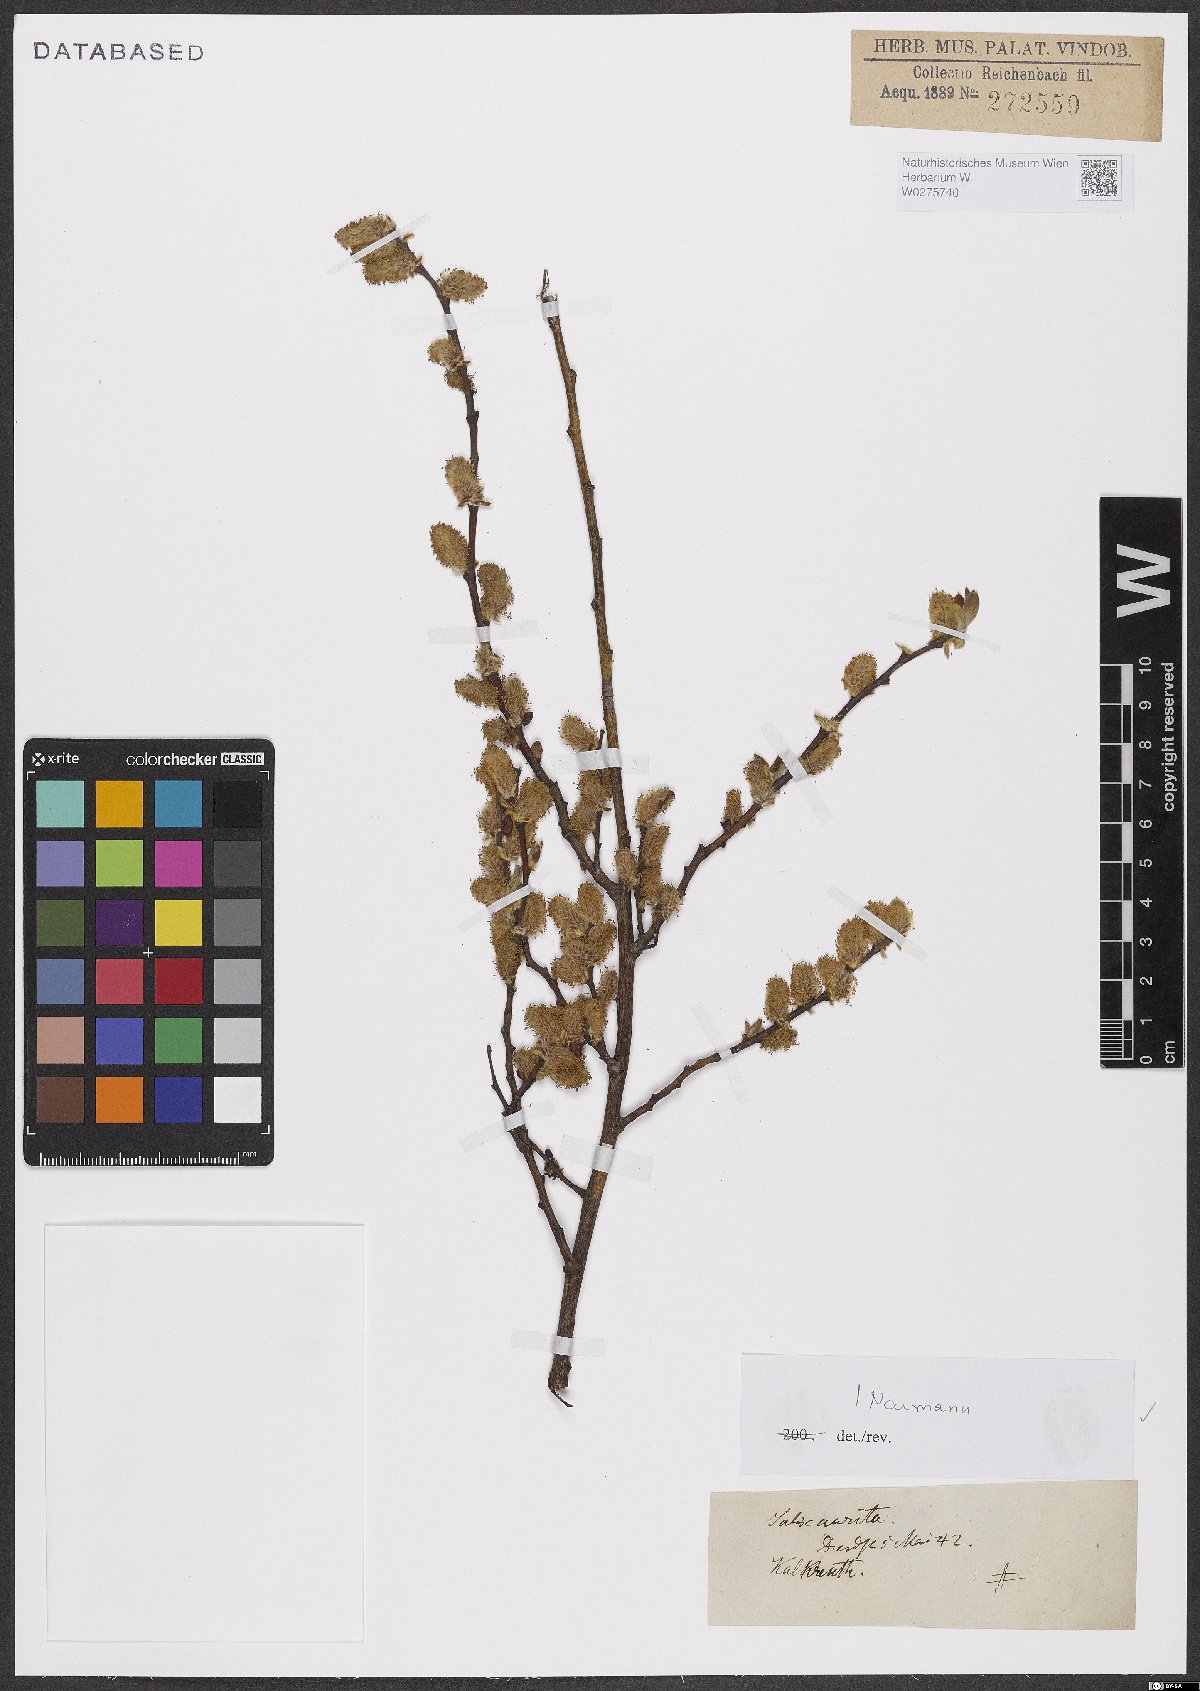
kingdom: Plantae
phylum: Tracheophyta
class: Magnoliopsida
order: Malpighiales
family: Salicaceae
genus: Salix
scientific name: Salix aurita
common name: Eared willow
